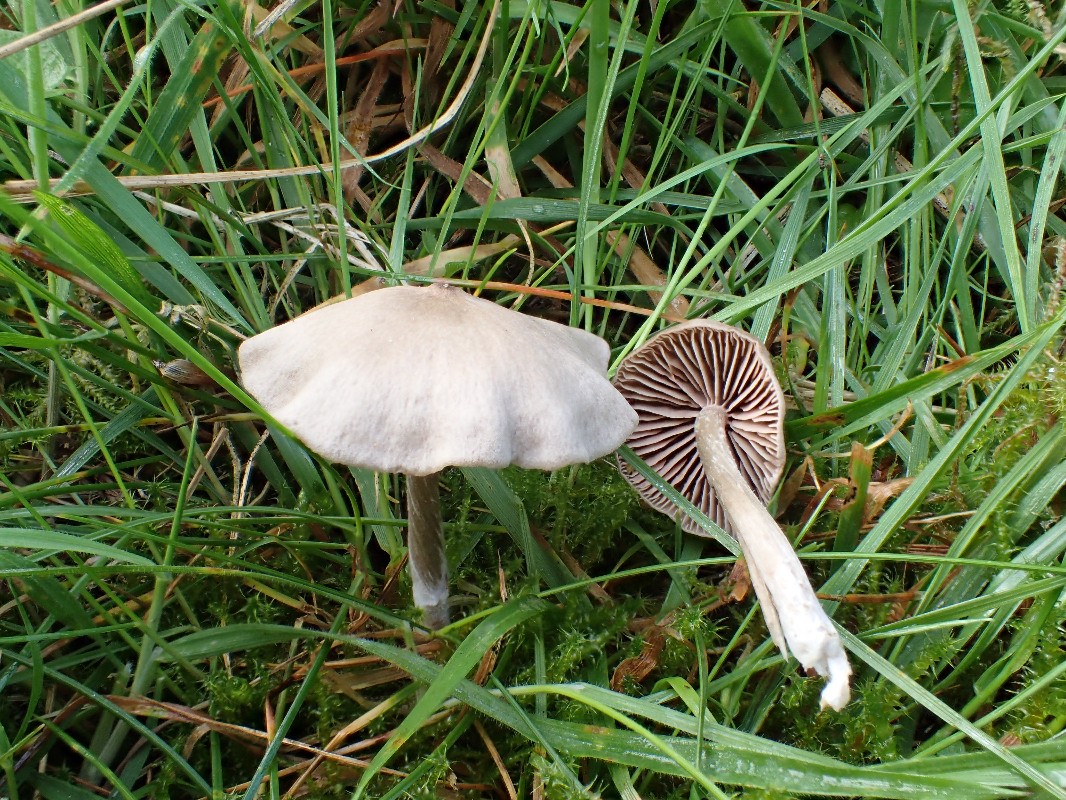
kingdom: Fungi
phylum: Basidiomycota
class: Agaricomycetes
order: Agaricales
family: Entolomataceae
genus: Entoloma
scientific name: Entoloma
